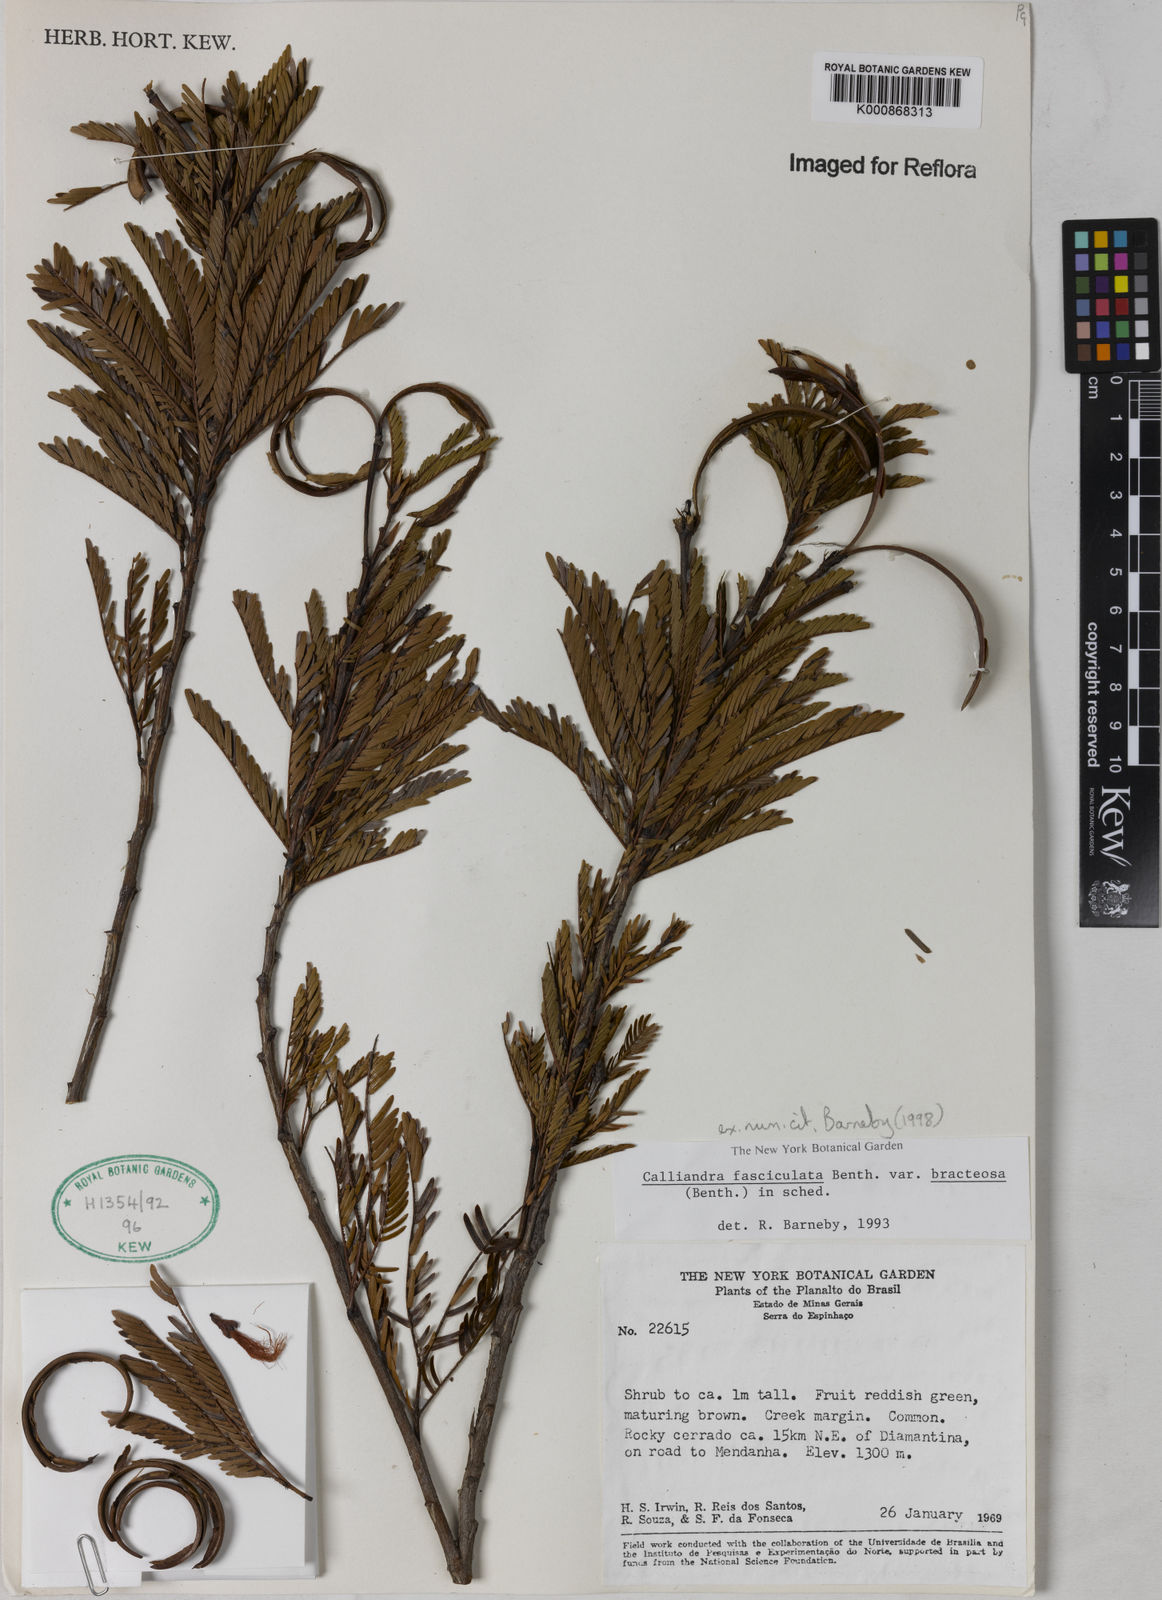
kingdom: Plantae
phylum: Tracheophyta
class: Magnoliopsida
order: Fabales
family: Fabaceae
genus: Calliandra
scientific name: Calliandra fasciculata
